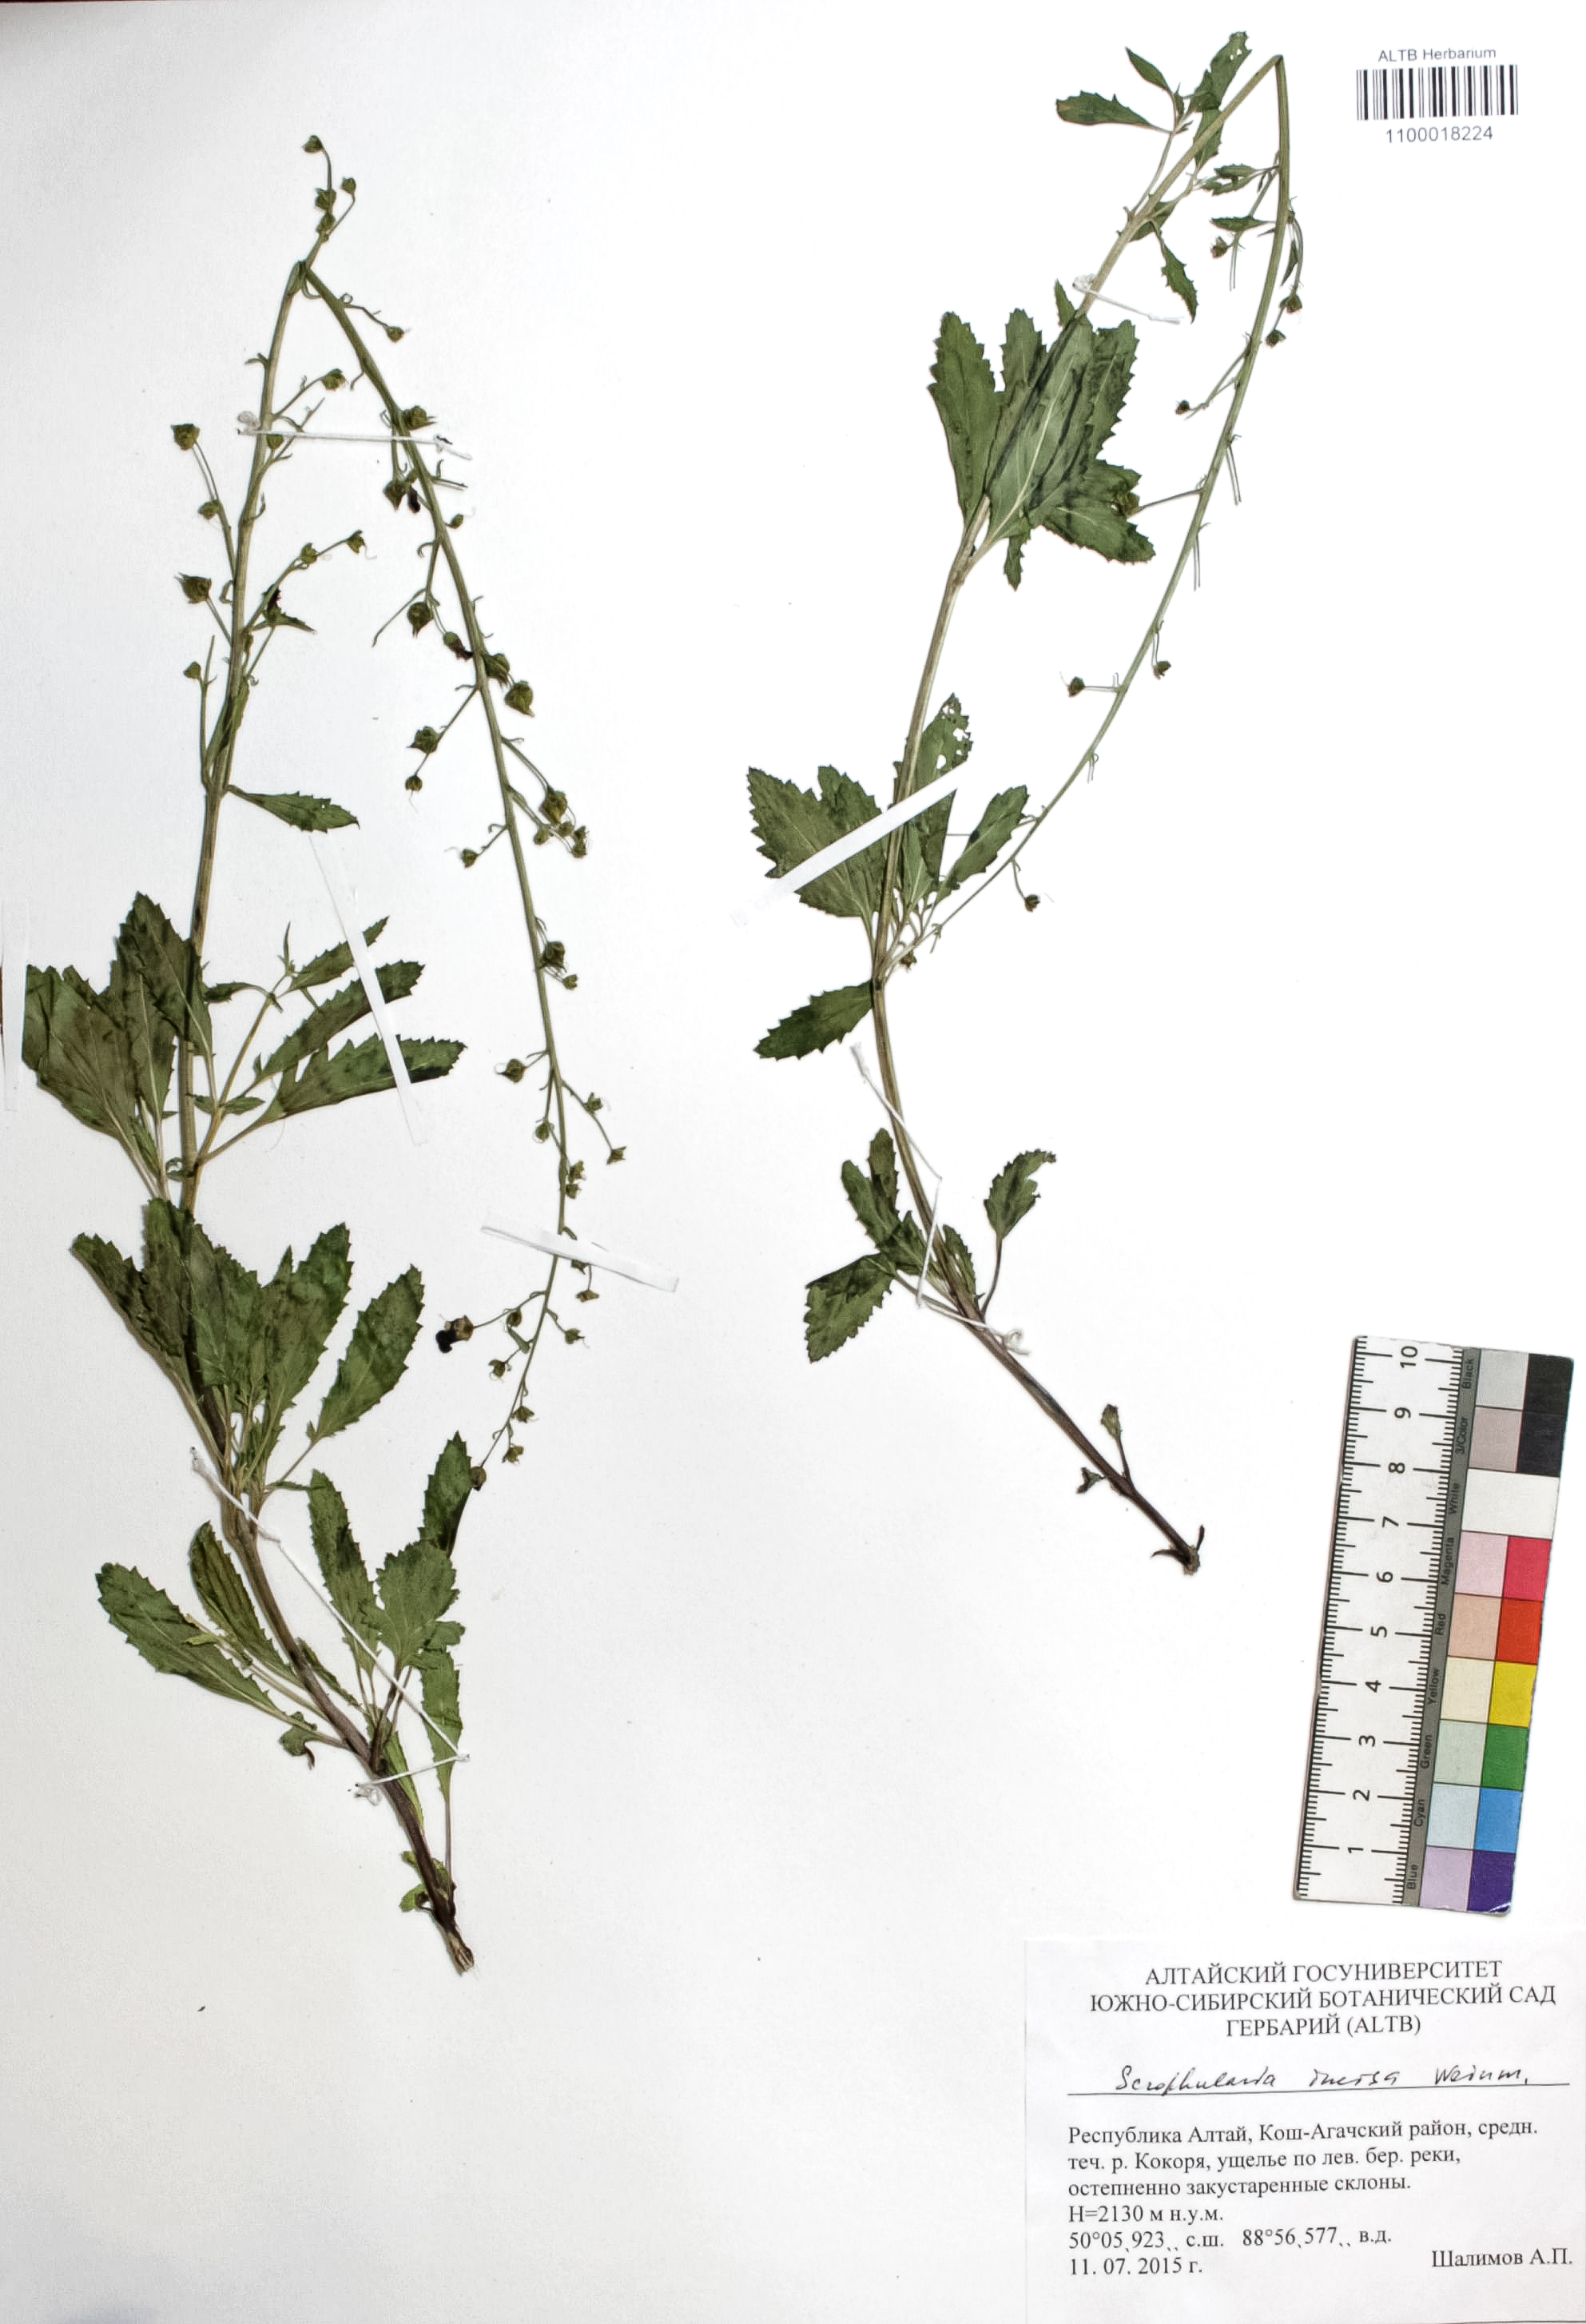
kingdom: Plantae
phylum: Tracheophyta
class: Magnoliopsida
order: Lamiales
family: Scrophulariaceae
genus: Scrophularia
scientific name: Scrophularia incisa
